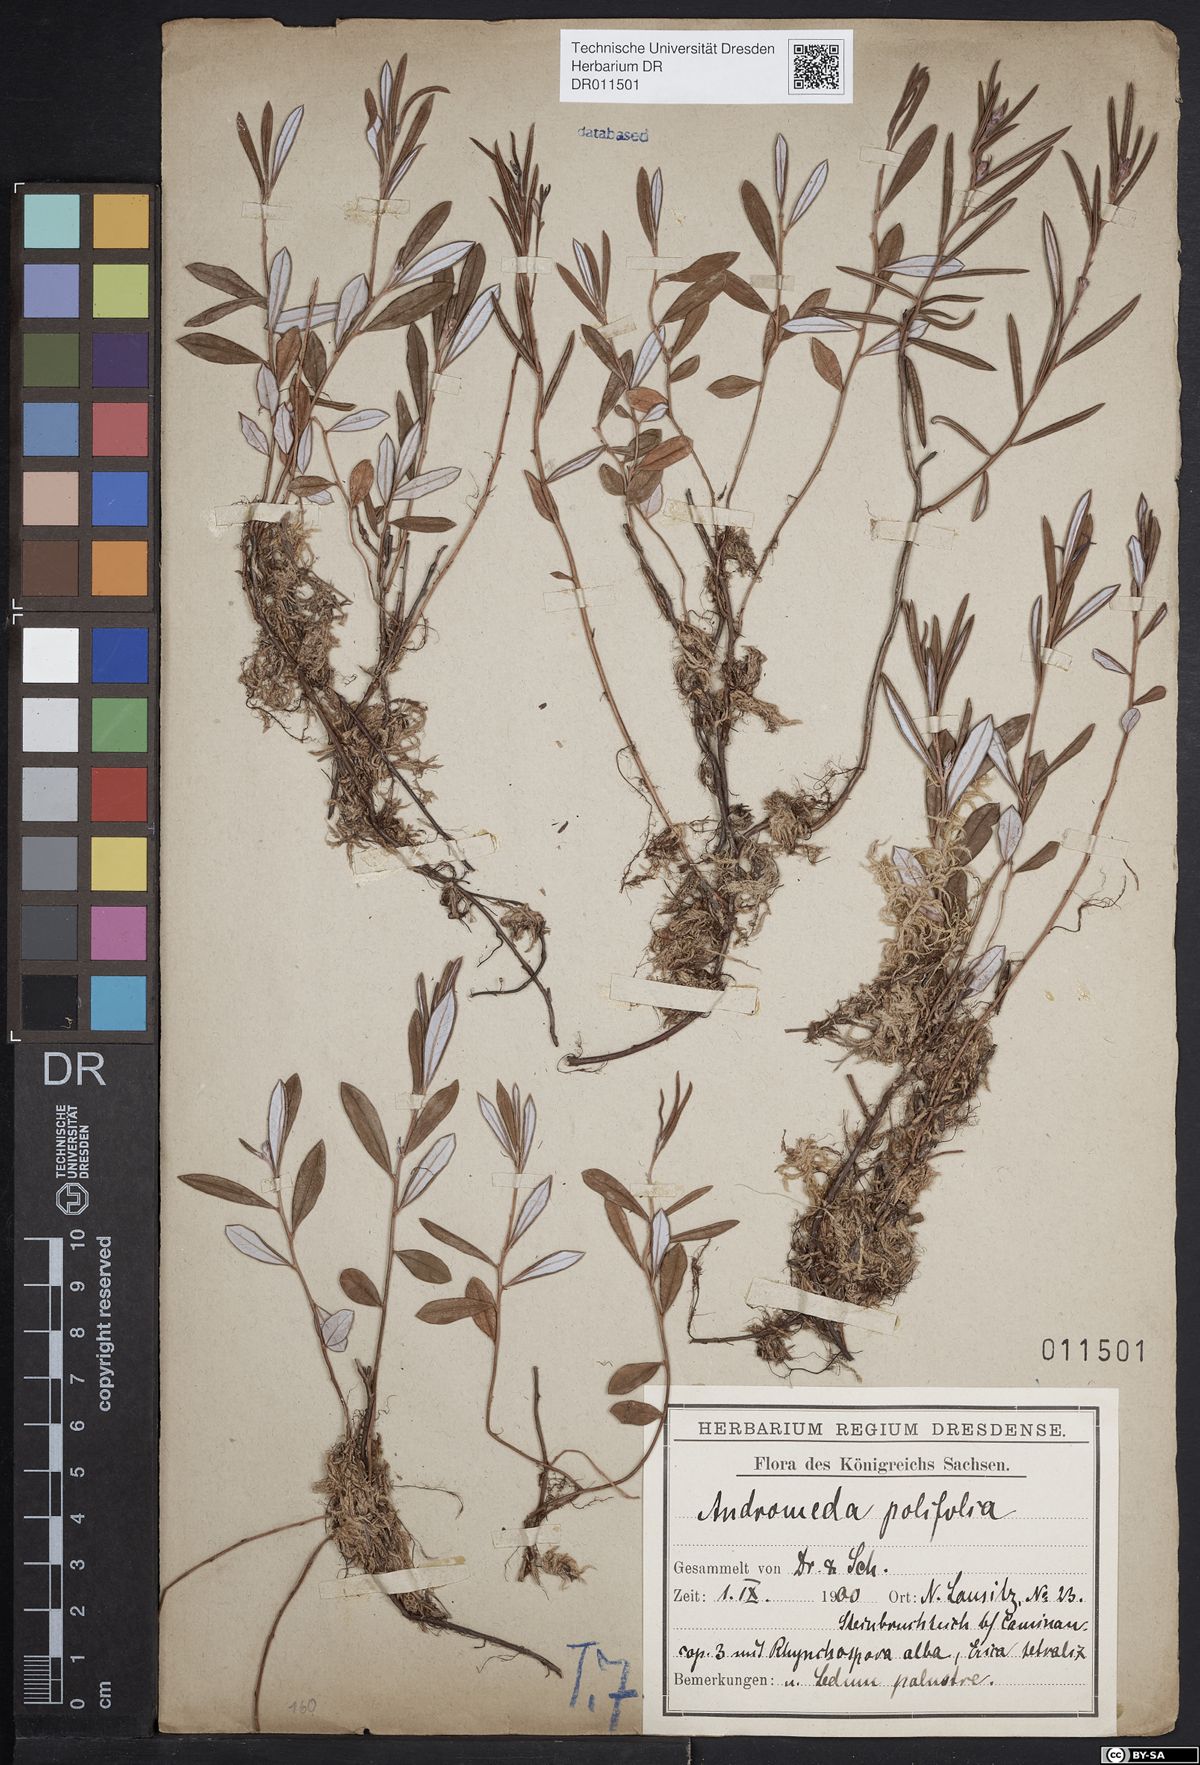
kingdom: Plantae
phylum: Tracheophyta
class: Magnoliopsida
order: Ericales
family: Ericaceae
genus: Andromeda
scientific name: Andromeda polifolia
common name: Bog-rosemary
